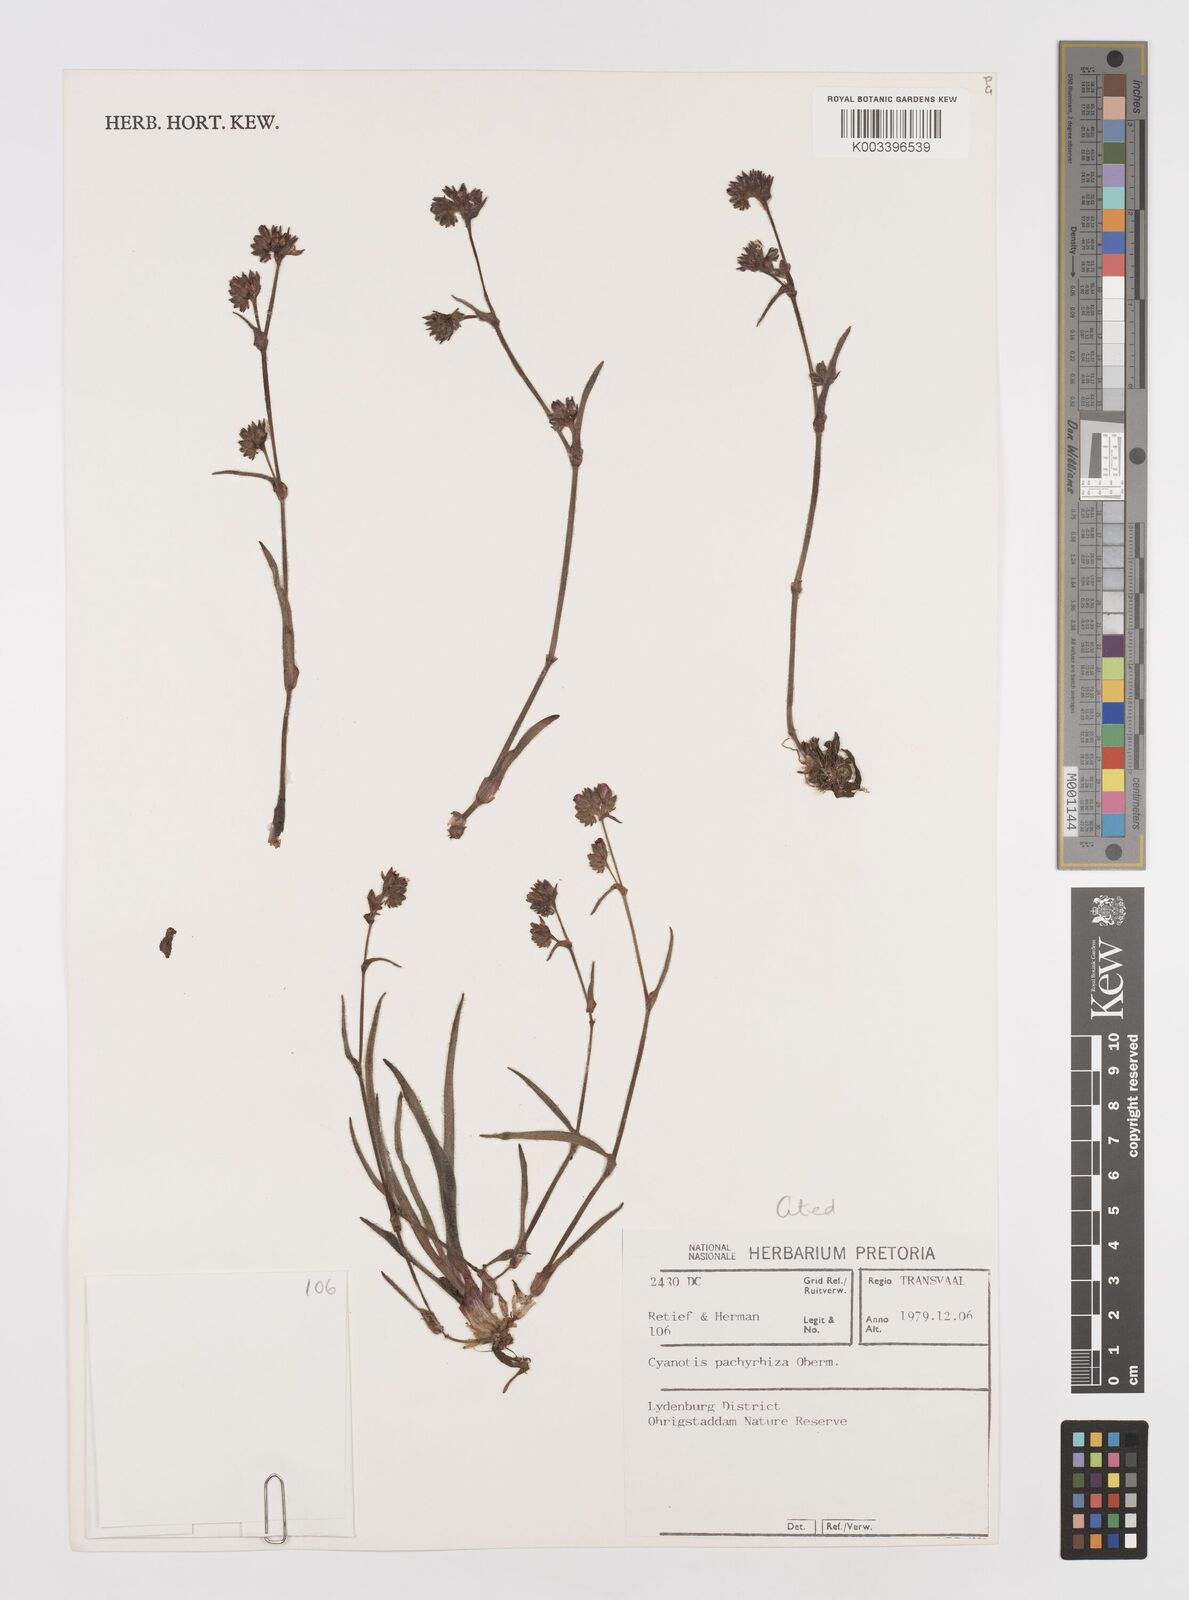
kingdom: Plantae
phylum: Tracheophyta
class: Liliopsida
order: Commelinales
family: Commelinaceae
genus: Cyanotis
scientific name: Cyanotis pachyrrhiza
